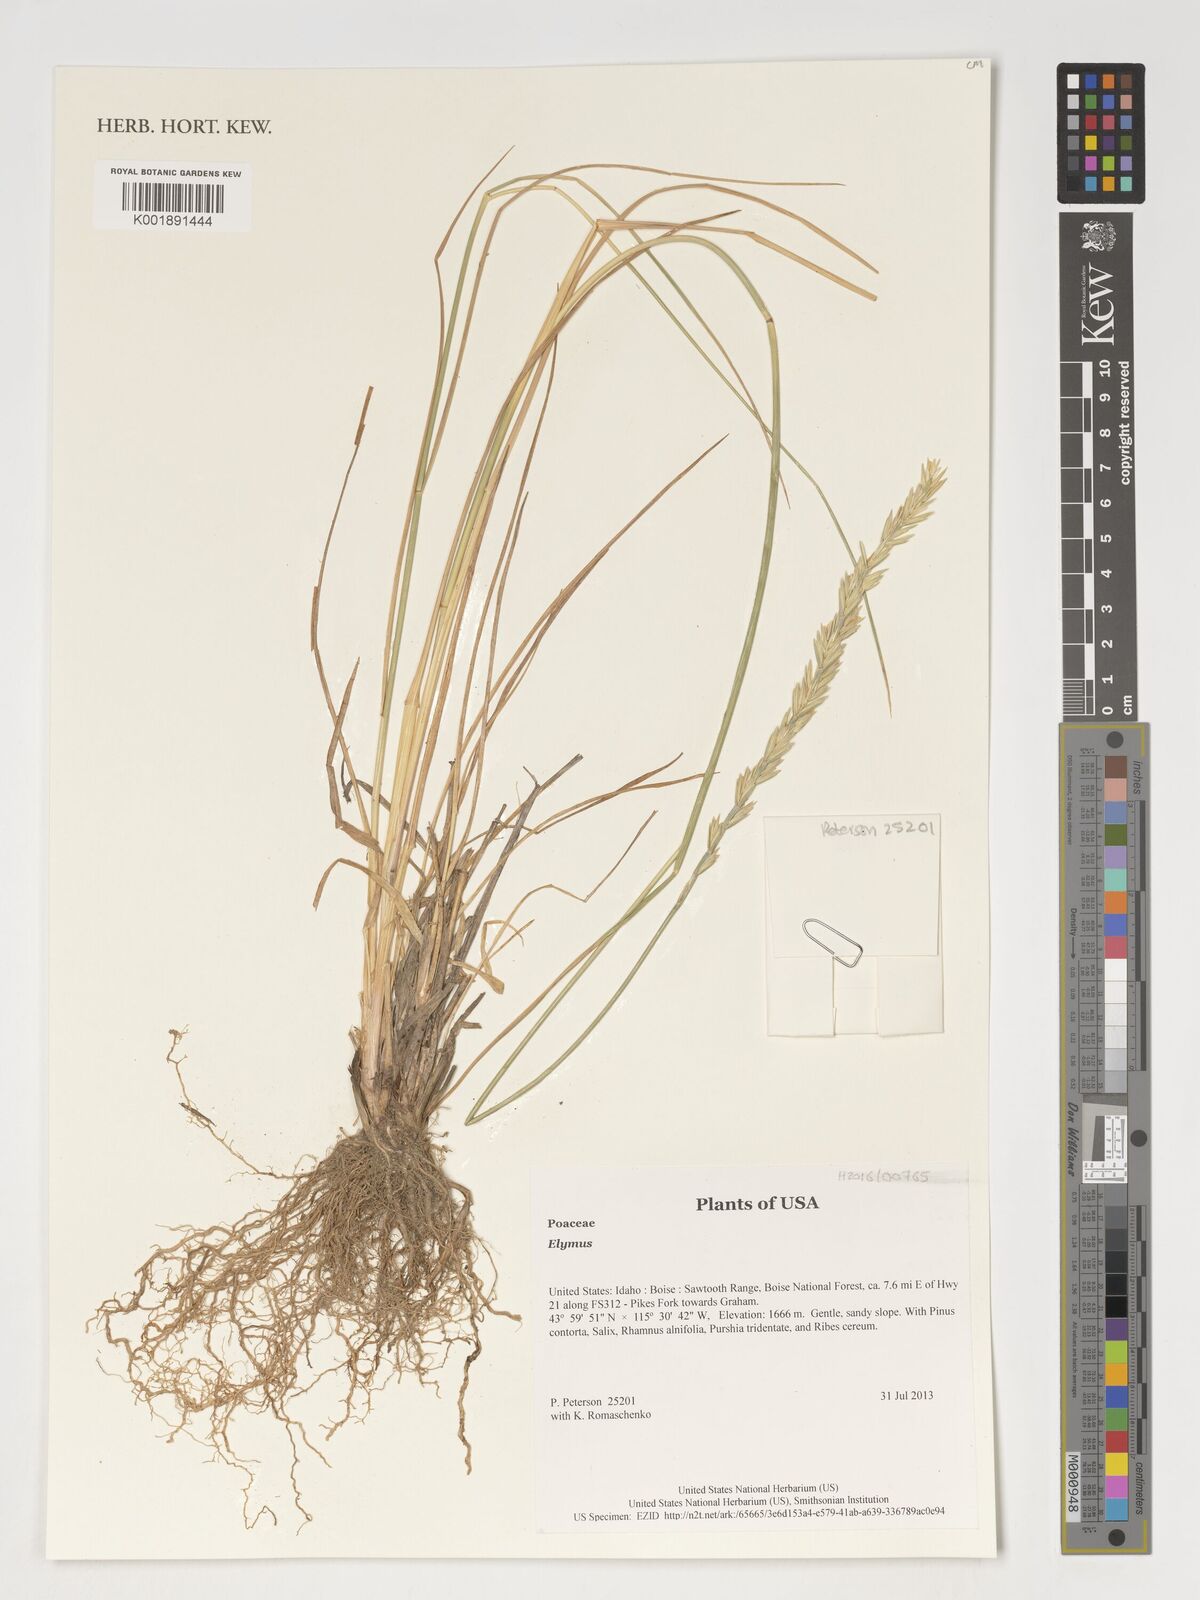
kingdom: Plantae
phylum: Tracheophyta
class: Liliopsida
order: Poales
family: Poaceae
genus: Elymus
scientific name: Elymus
